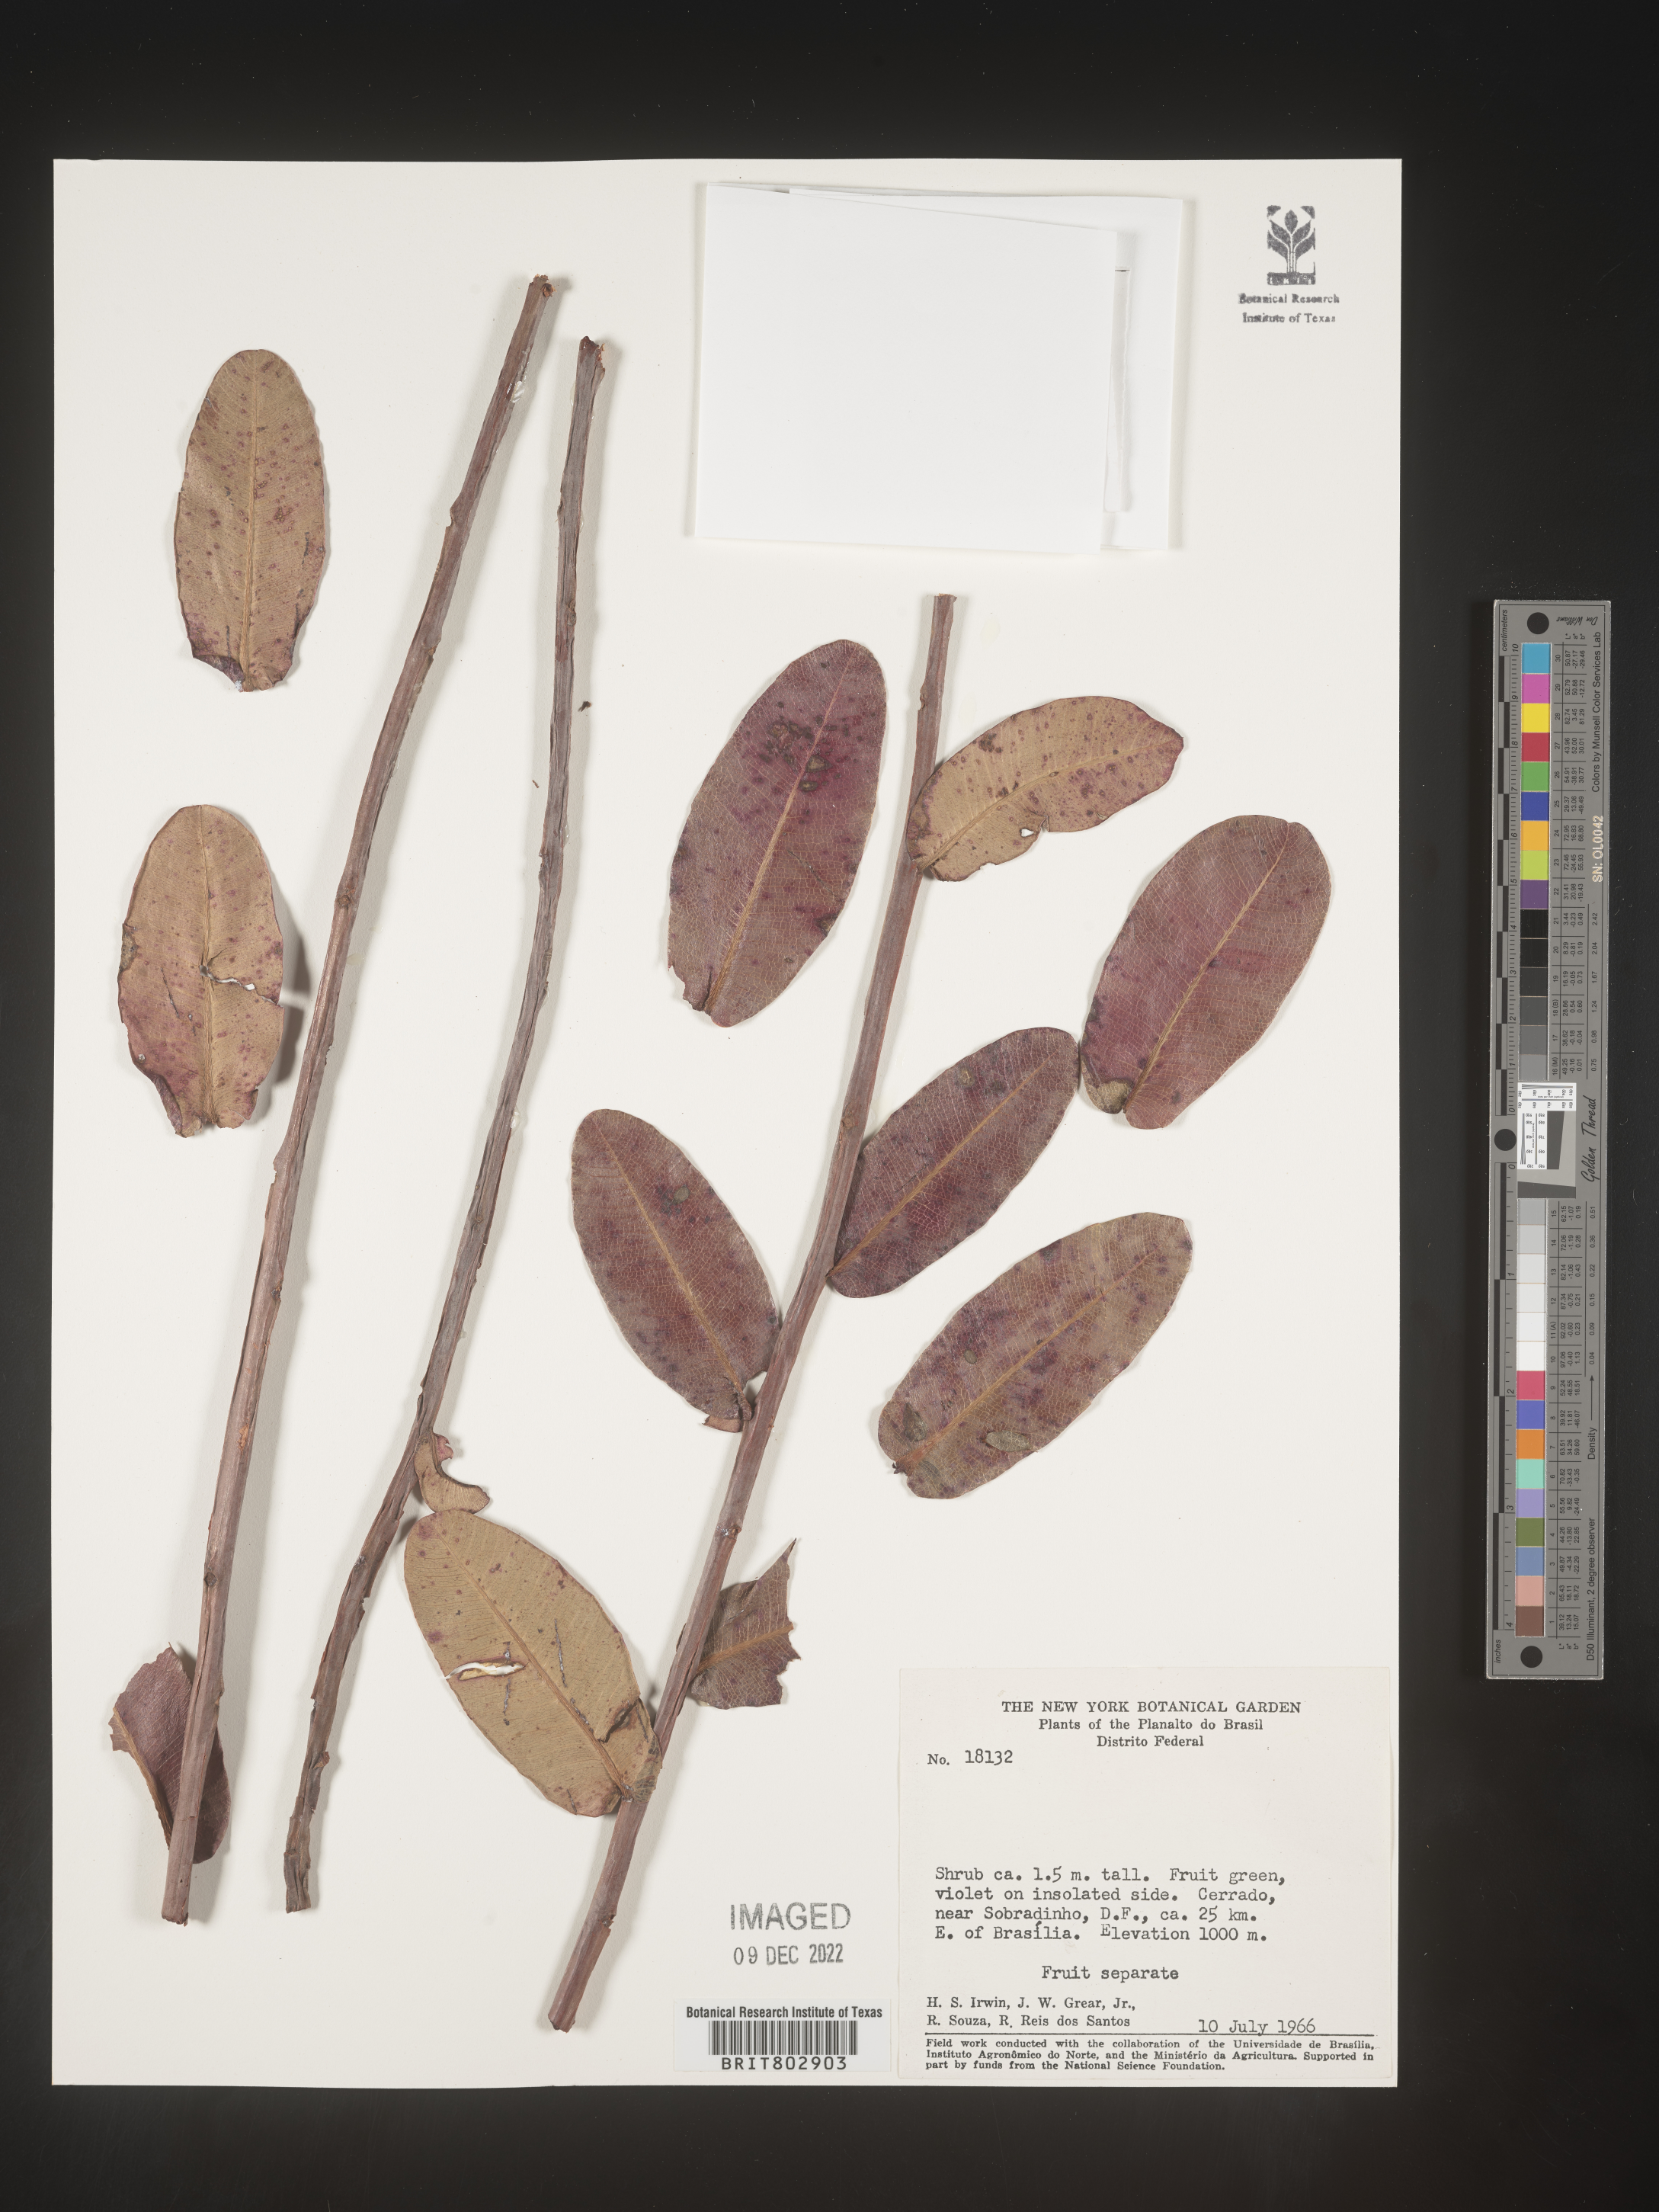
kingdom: Plantae
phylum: Tracheophyta
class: Magnoliopsida
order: Malpighiales
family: Calophyllaceae
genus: Kielmeyera
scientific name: Kielmeyera
